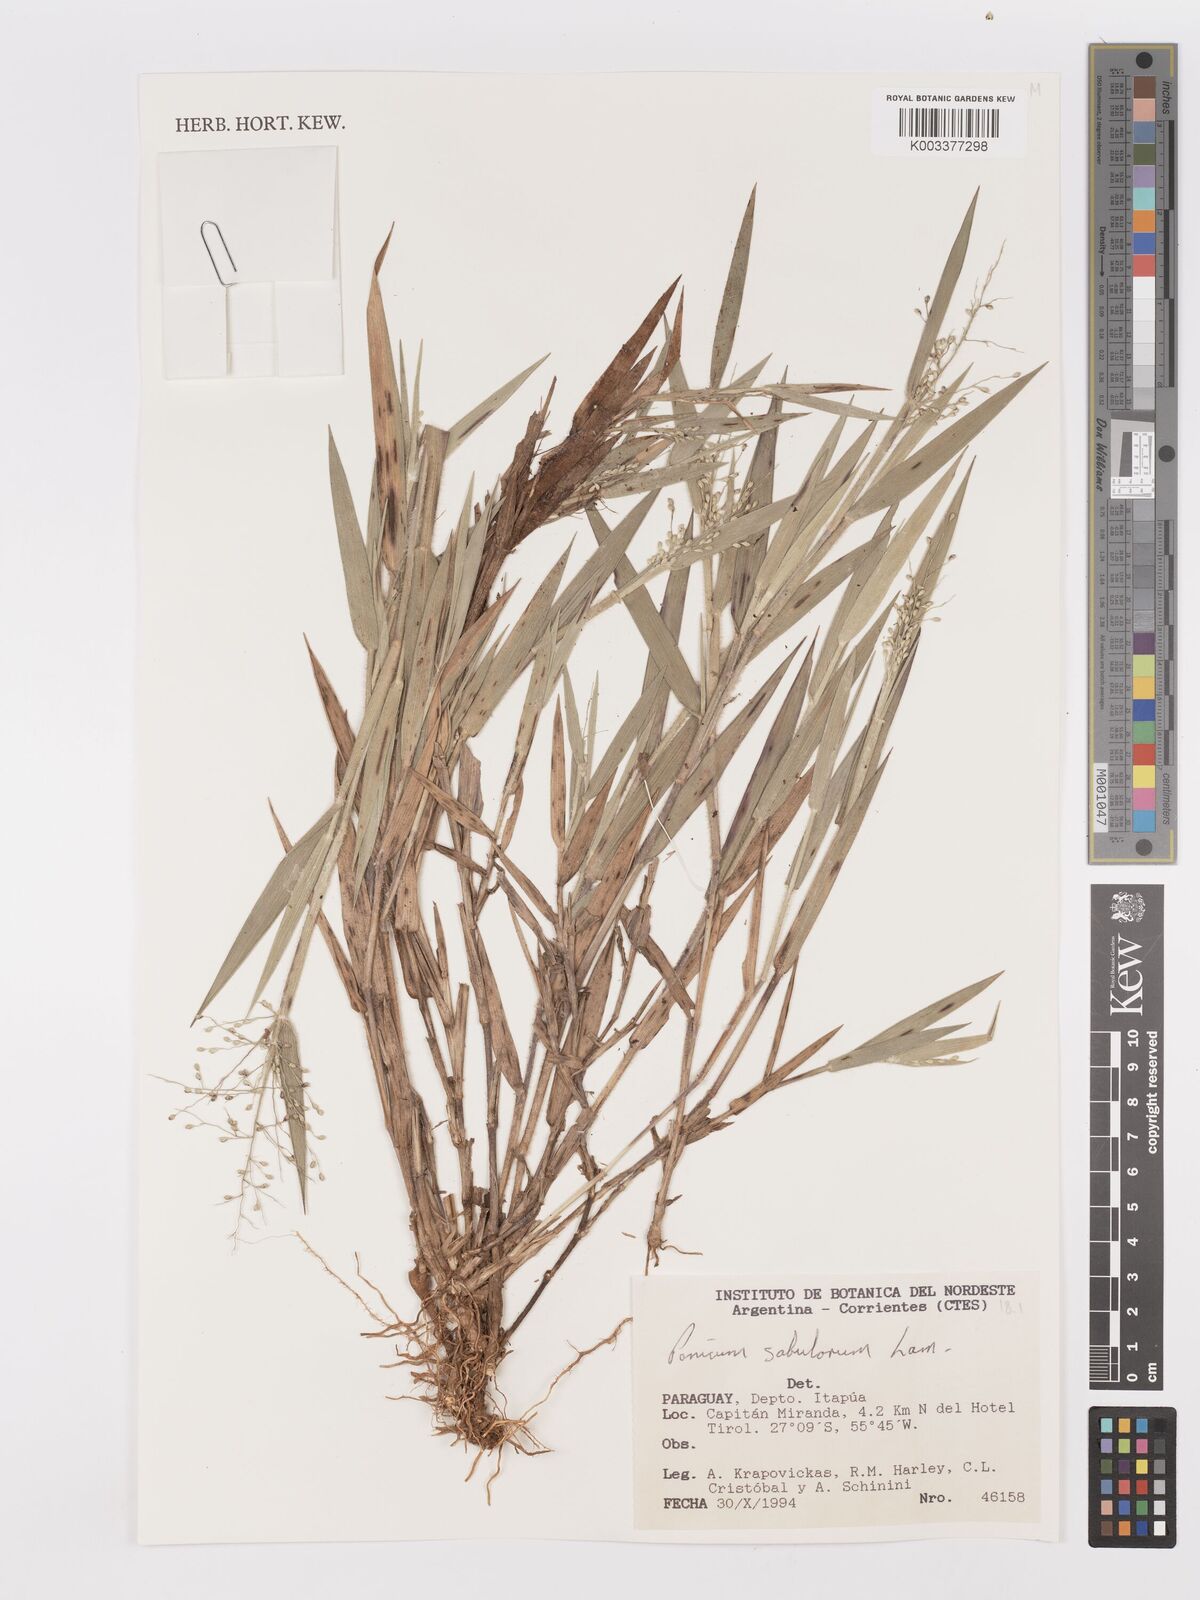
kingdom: Plantae
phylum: Tracheophyta
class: Liliopsida
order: Poales
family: Poaceae
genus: Dichanthelium
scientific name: Dichanthelium sabulorum
